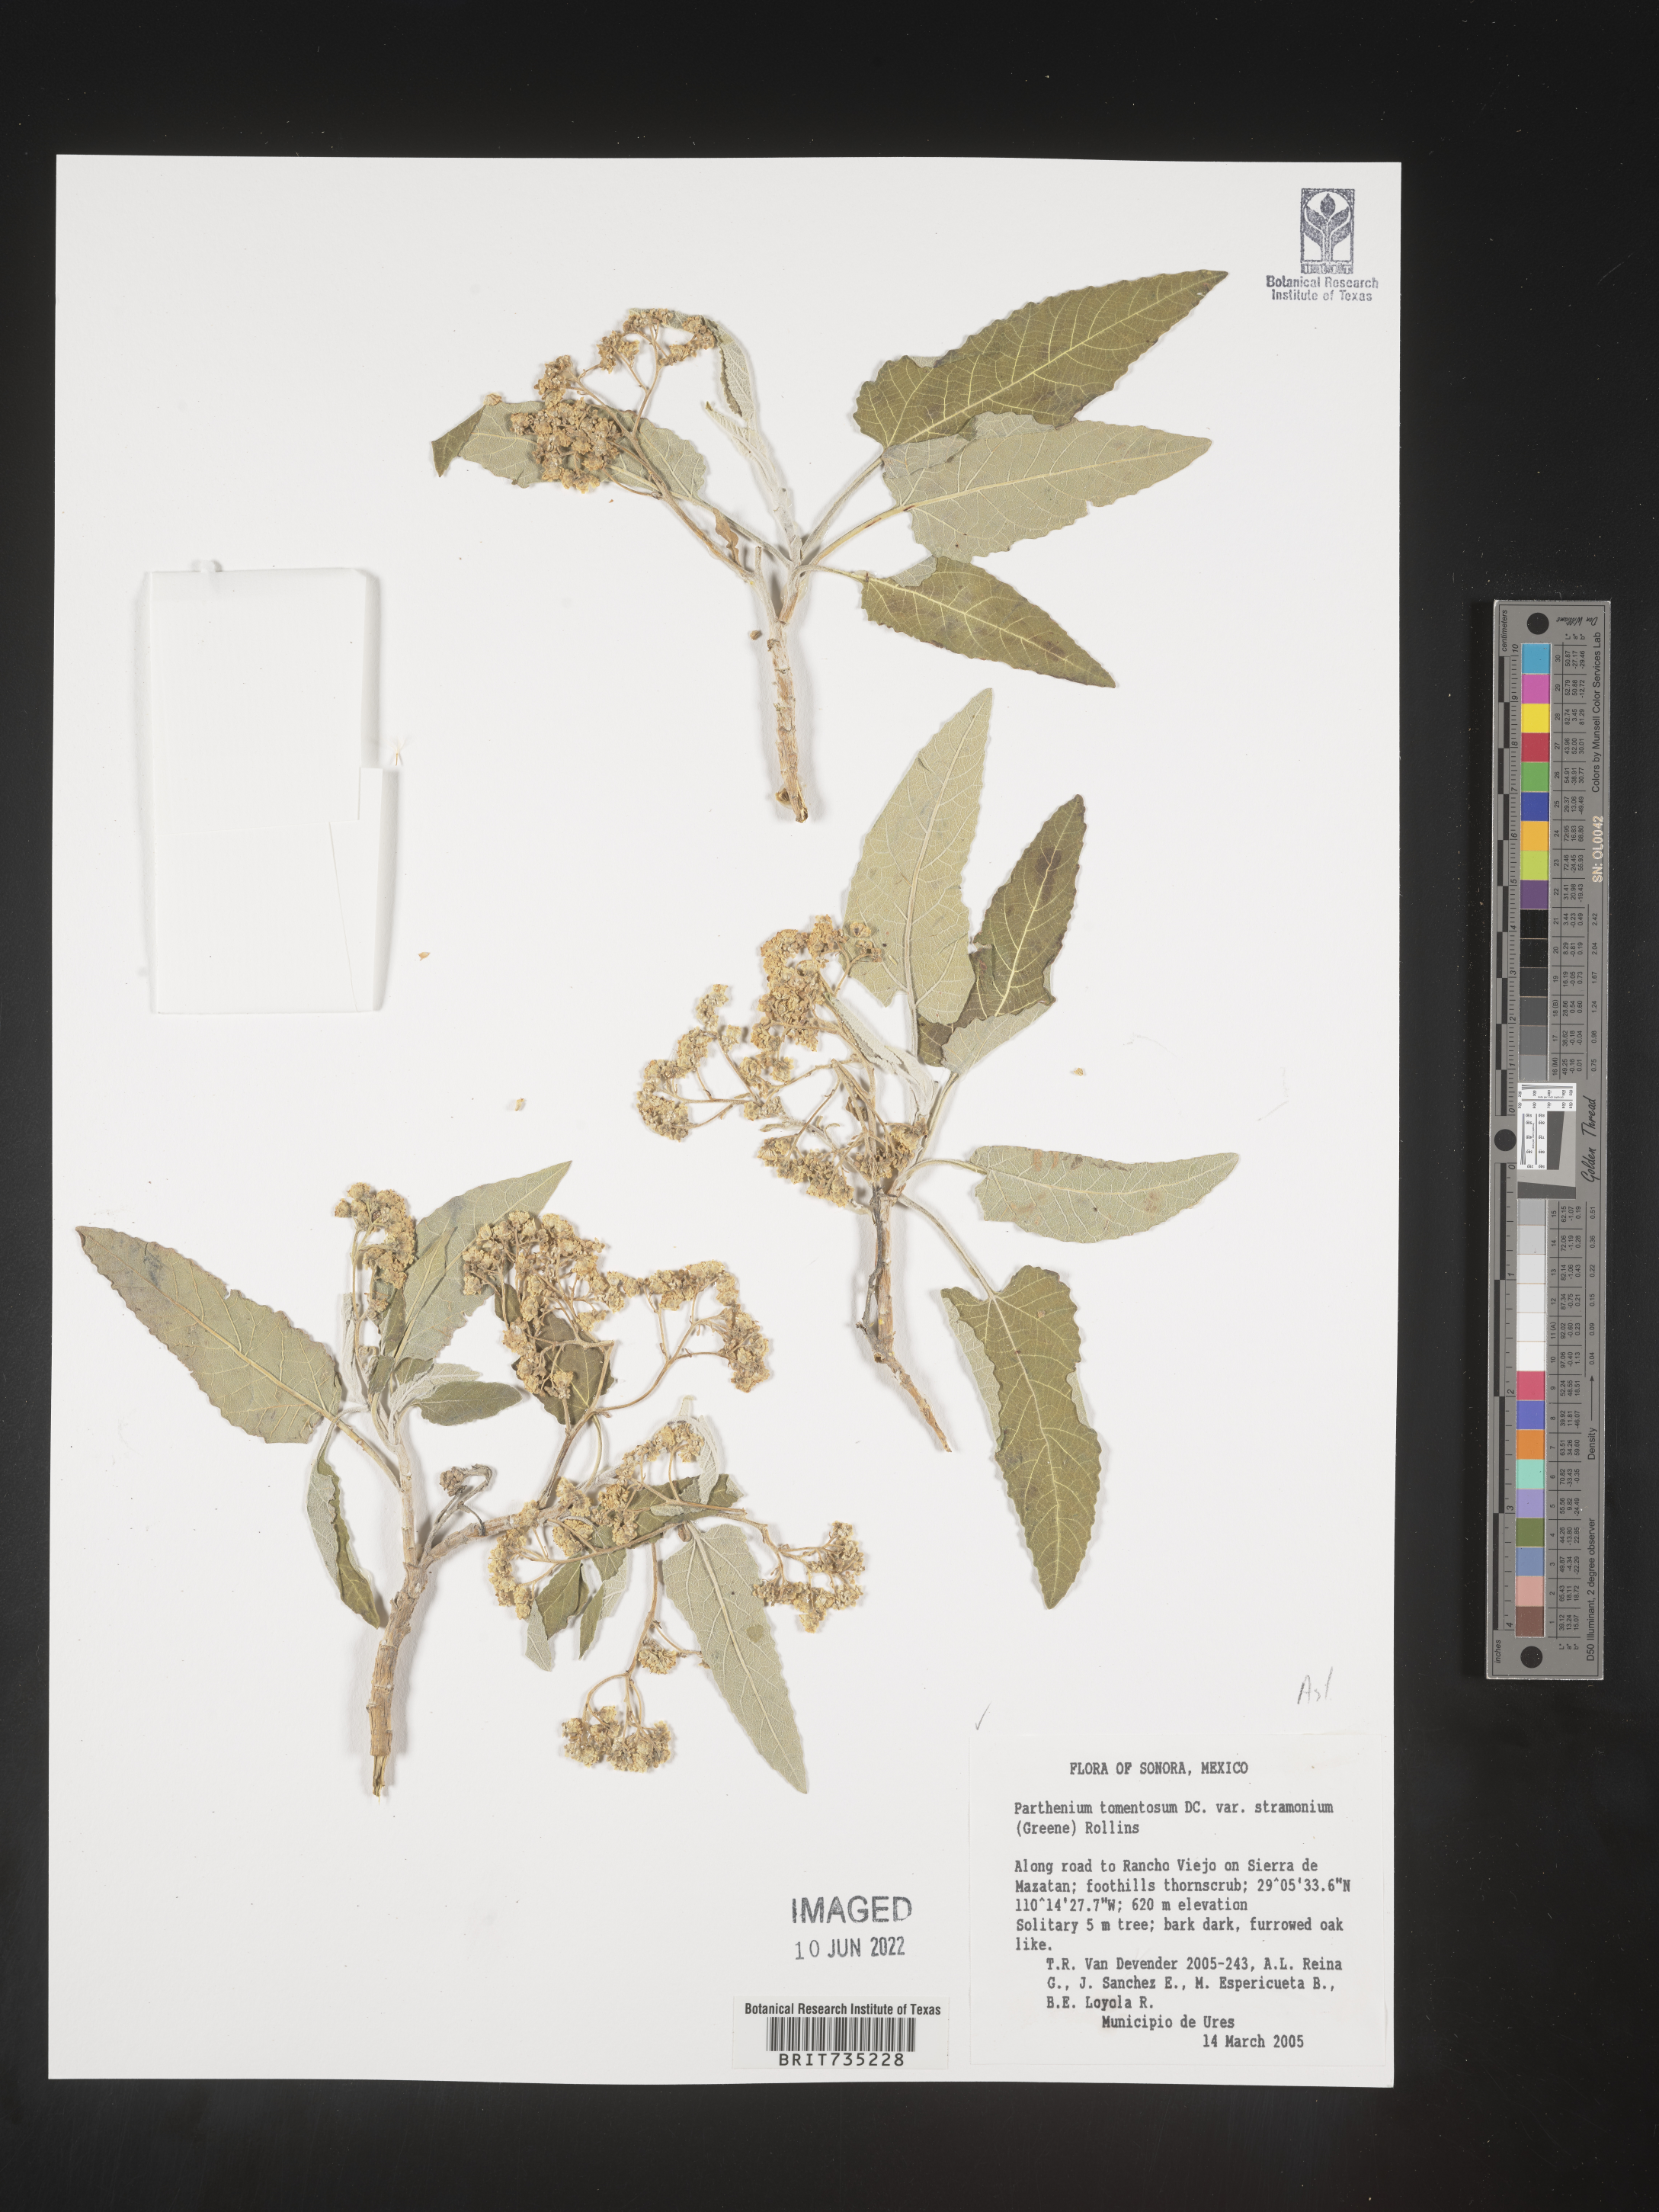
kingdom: Plantae
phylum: Tracheophyta
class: Magnoliopsida
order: Asterales
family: Asteraceae
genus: Parthenium
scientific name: Parthenium
